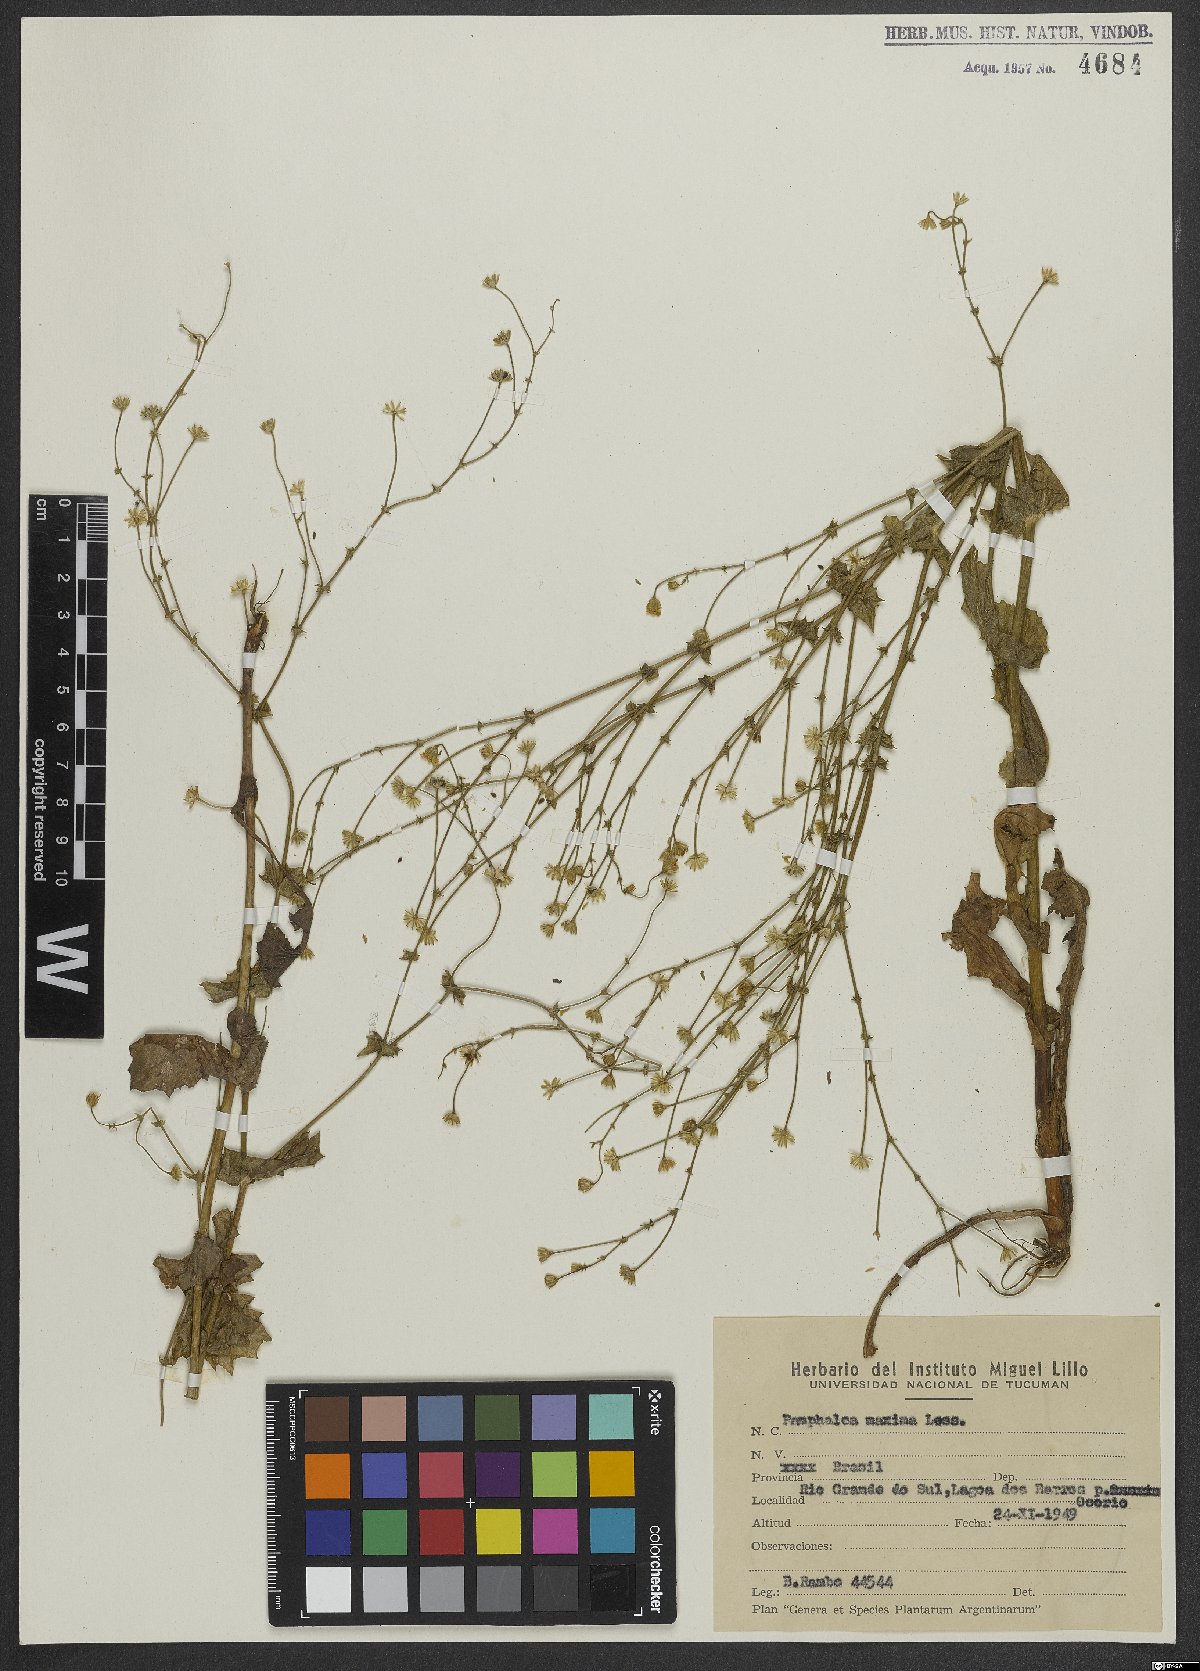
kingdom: Plantae
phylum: Tracheophyta
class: Magnoliopsida
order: Asterales
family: Asteraceae
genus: Panphalea
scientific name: Panphalea maxima
